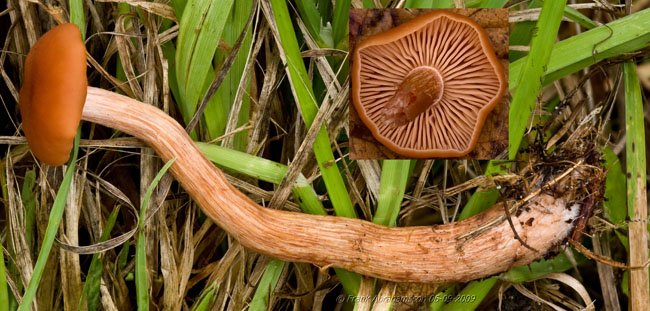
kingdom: Fungi
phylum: Basidiomycota
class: Agaricomycetes
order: Agaricales
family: Hydnangiaceae
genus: Laccaria
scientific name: Laccaria laccata
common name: rød ametysthat
